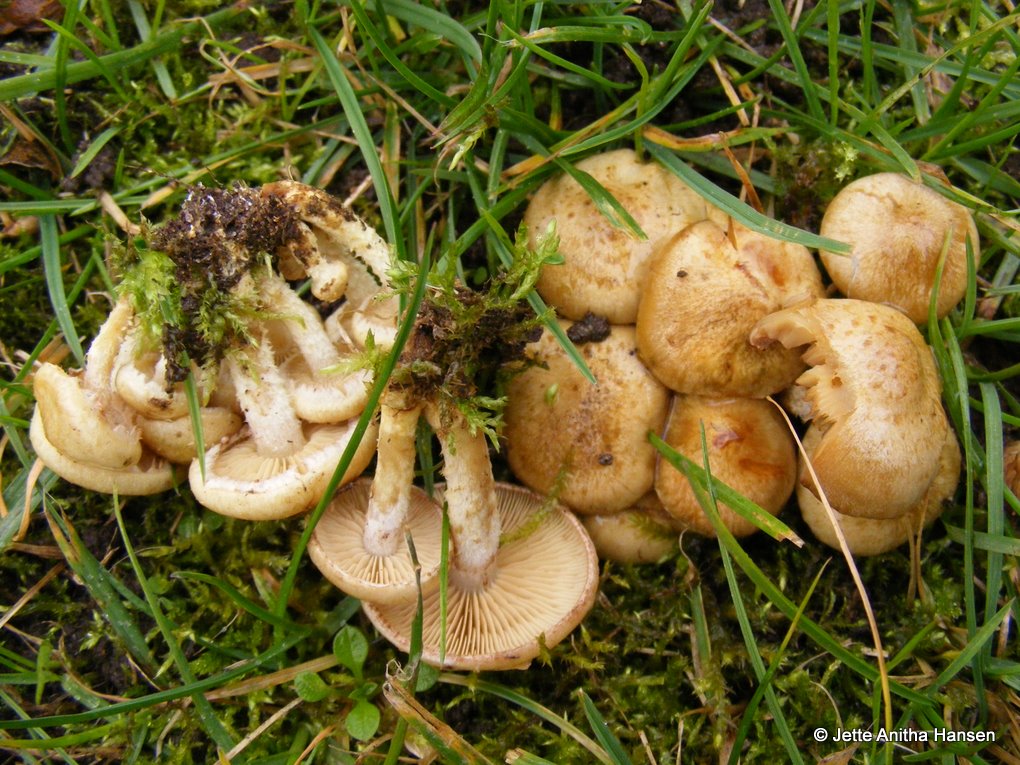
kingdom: Fungi
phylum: Basidiomycota
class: Agaricomycetes
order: Agaricales
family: Strophariaceae
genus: Pholiota
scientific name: Pholiota gummosa
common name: grøngul skælhat
